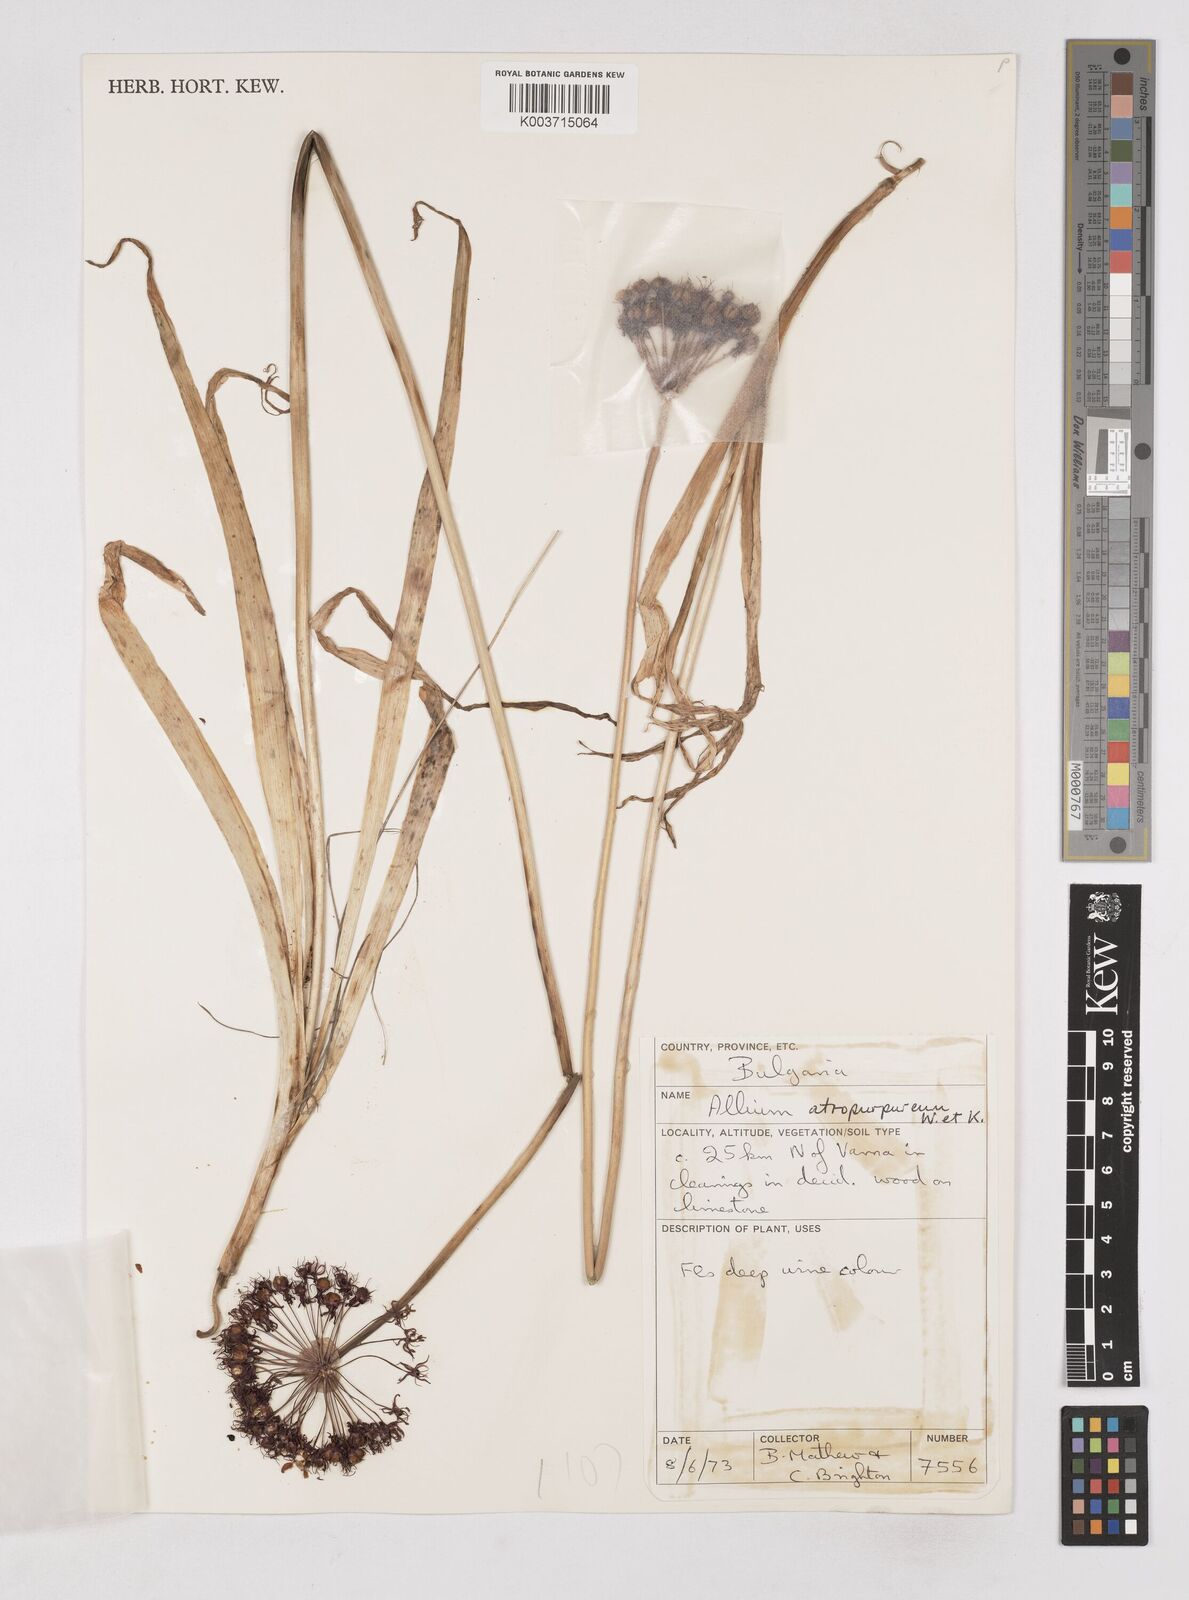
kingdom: Plantae
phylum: Tracheophyta
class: Liliopsida
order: Asparagales
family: Amaryllidaceae
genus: Allium
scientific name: Allium atropurpureum
